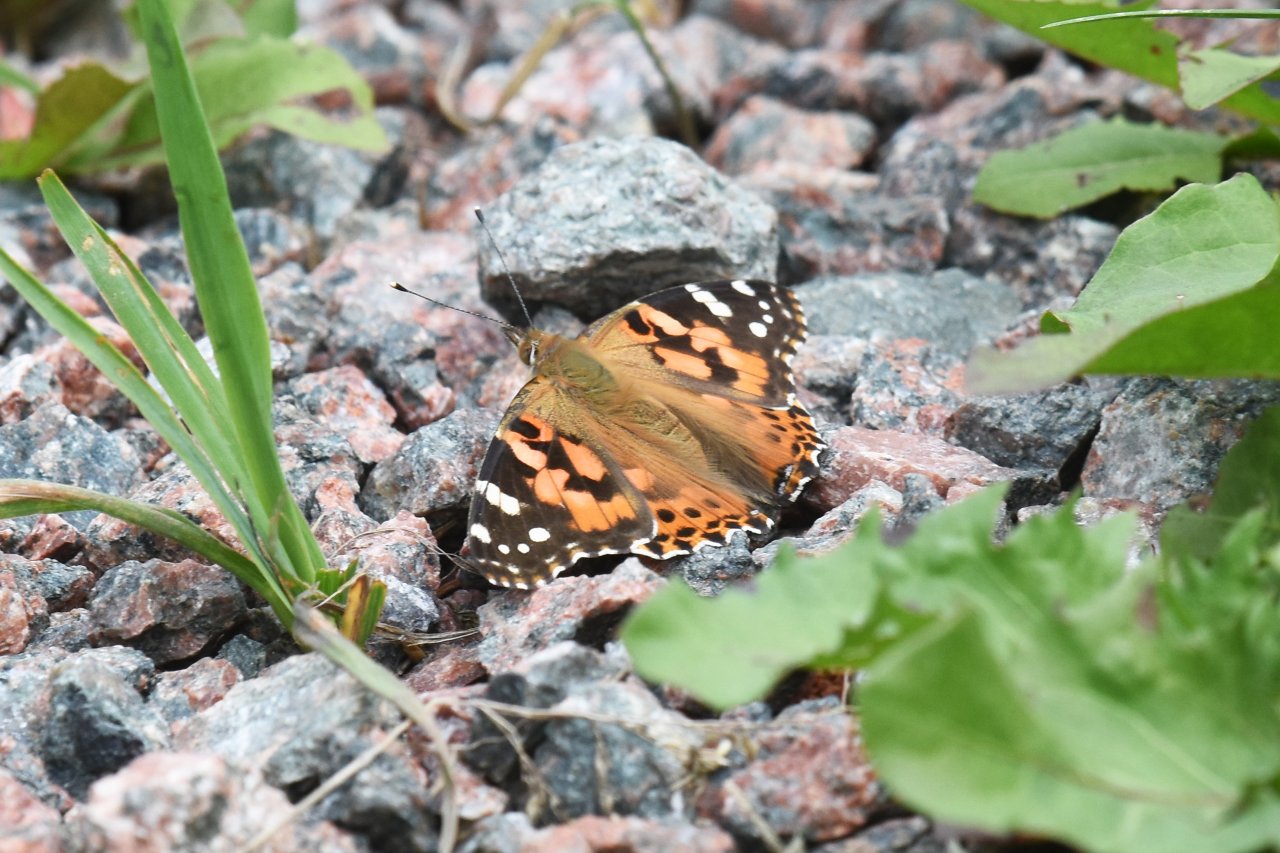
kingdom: Animalia
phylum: Arthropoda
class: Insecta
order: Lepidoptera
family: Nymphalidae
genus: Vanessa
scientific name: Vanessa cardui
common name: Painted Lady
